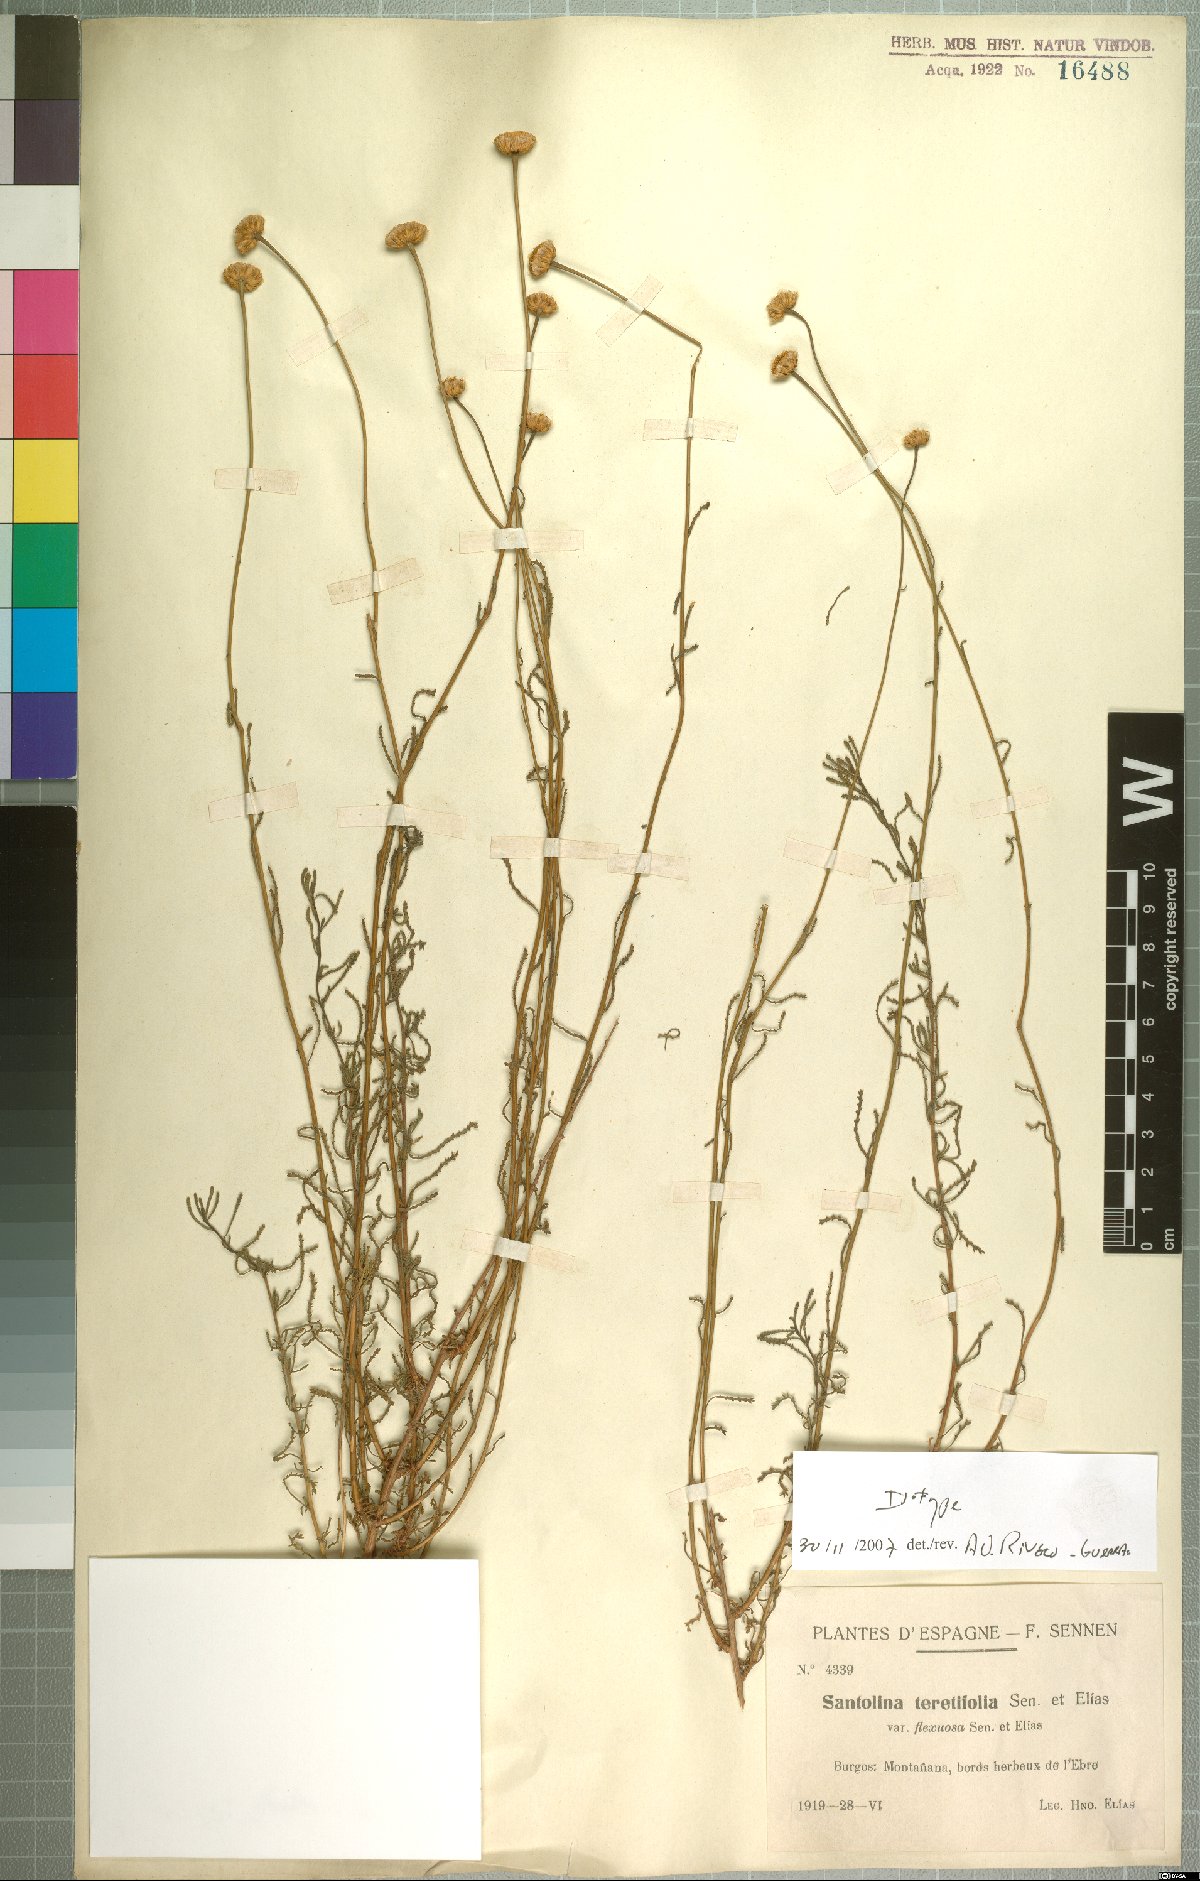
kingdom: Plantae
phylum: Tracheophyta
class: Magnoliopsida
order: Asterales
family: Asteraceae
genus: Santolina
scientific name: Santolina virens
